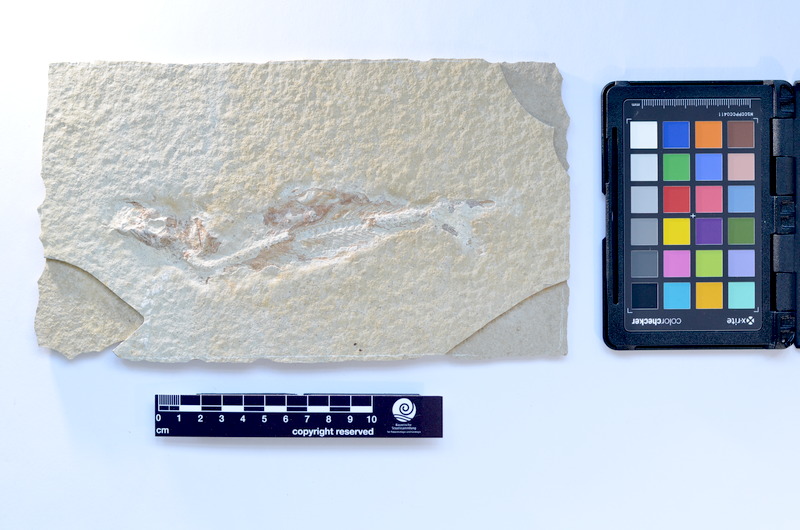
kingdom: Animalia
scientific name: Animalia
